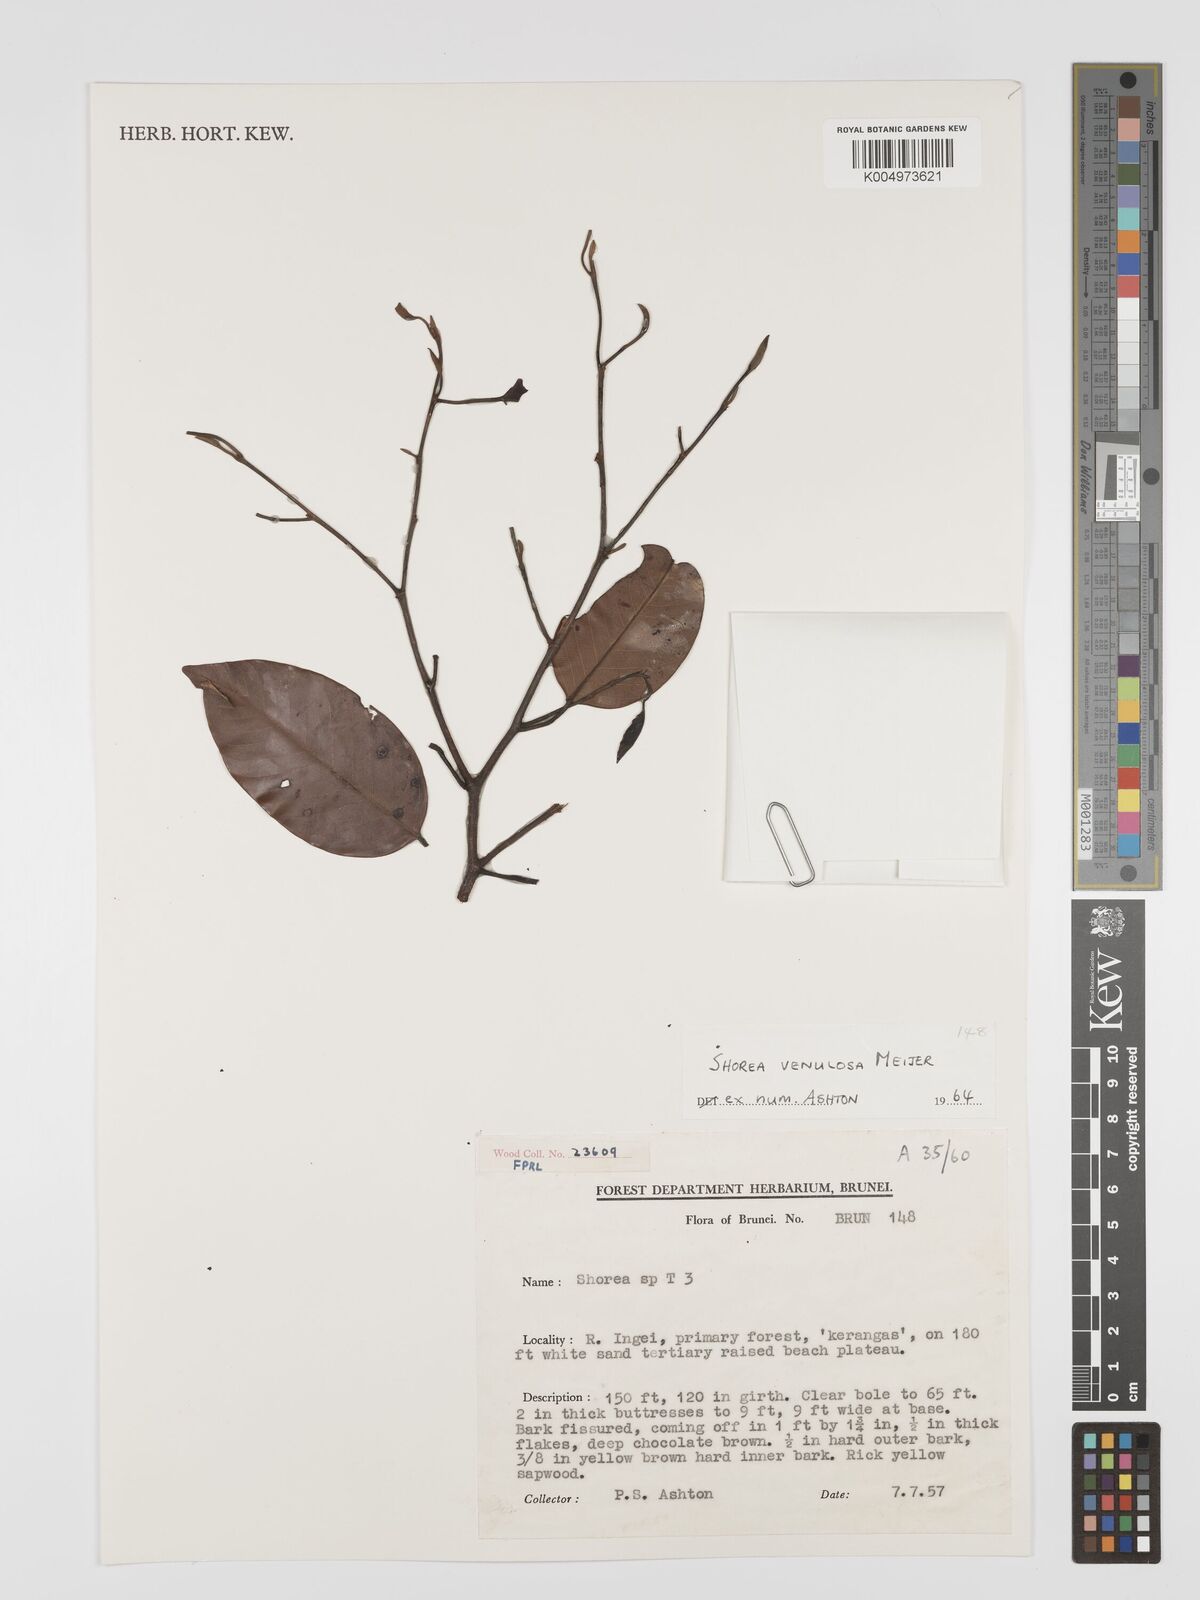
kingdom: Plantae
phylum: Tracheophyta
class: Magnoliopsida
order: Malvales
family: Dipterocarpaceae
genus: Shorea
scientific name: Shorea venulosa
